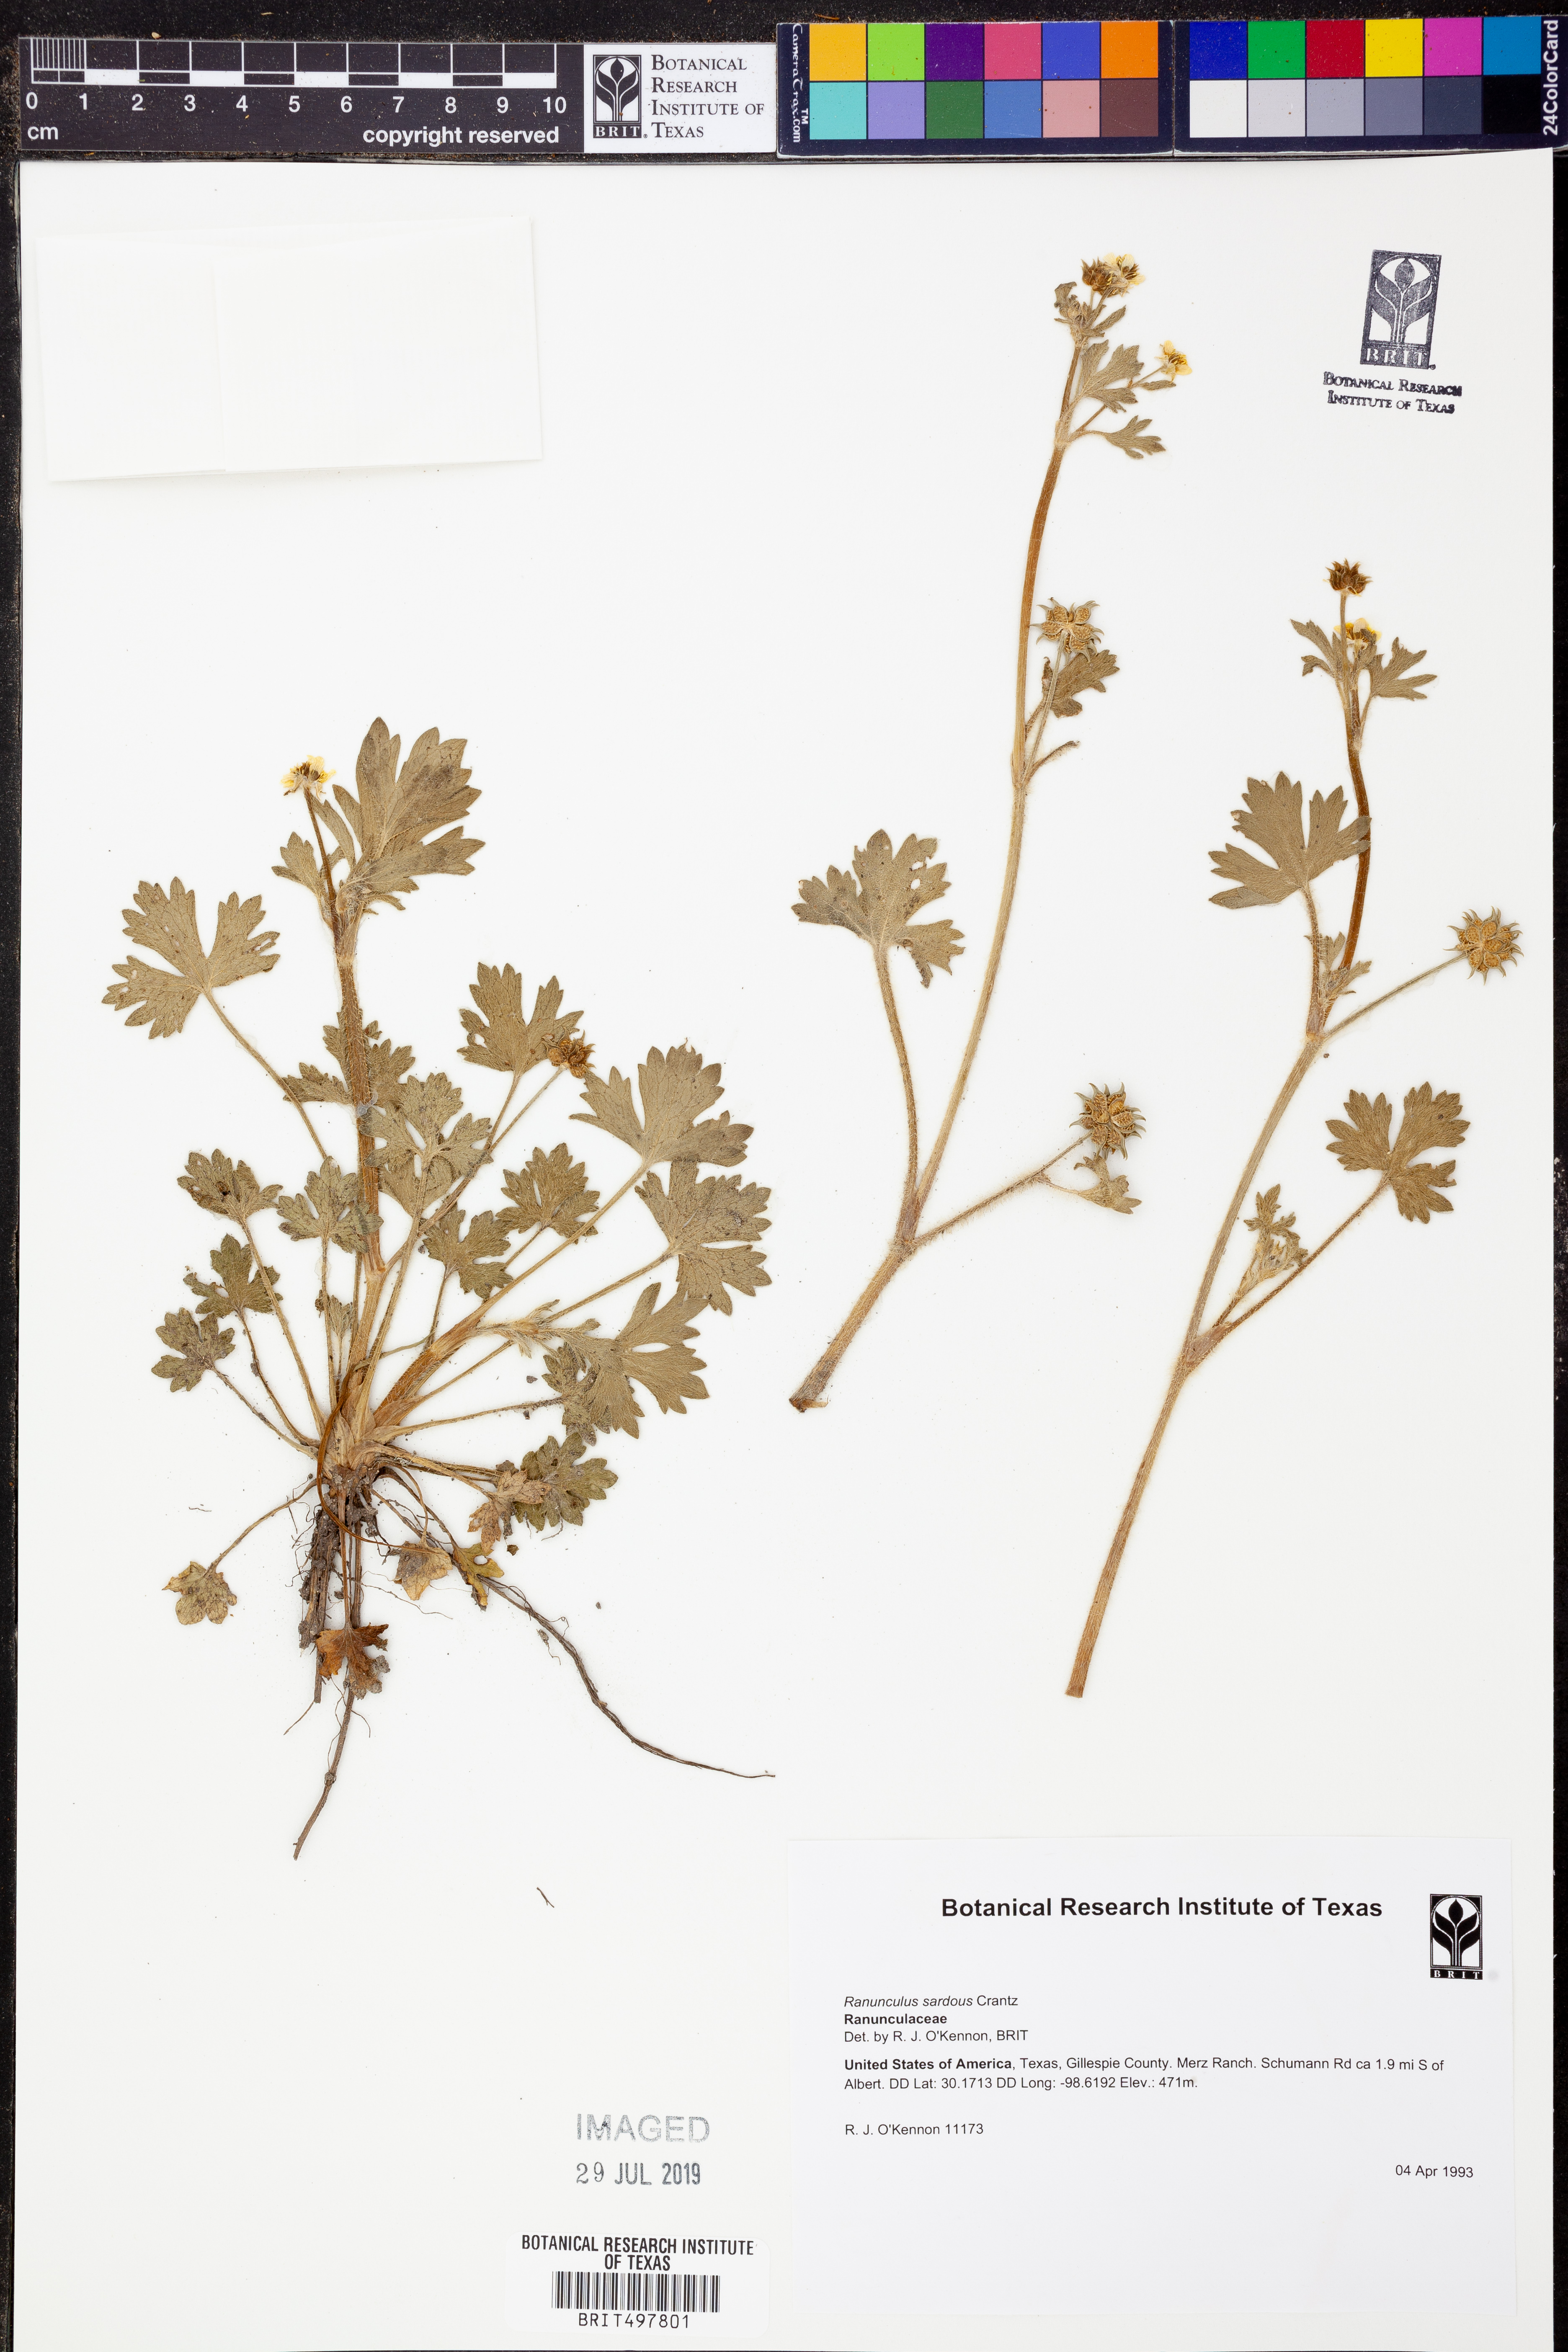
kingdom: Plantae
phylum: Tracheophyta
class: Magnoliopsida
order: Ranunculales
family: Ranunculaceae
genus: Ranunculus
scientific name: Ranunculus sardous
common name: Hairy buttercup
